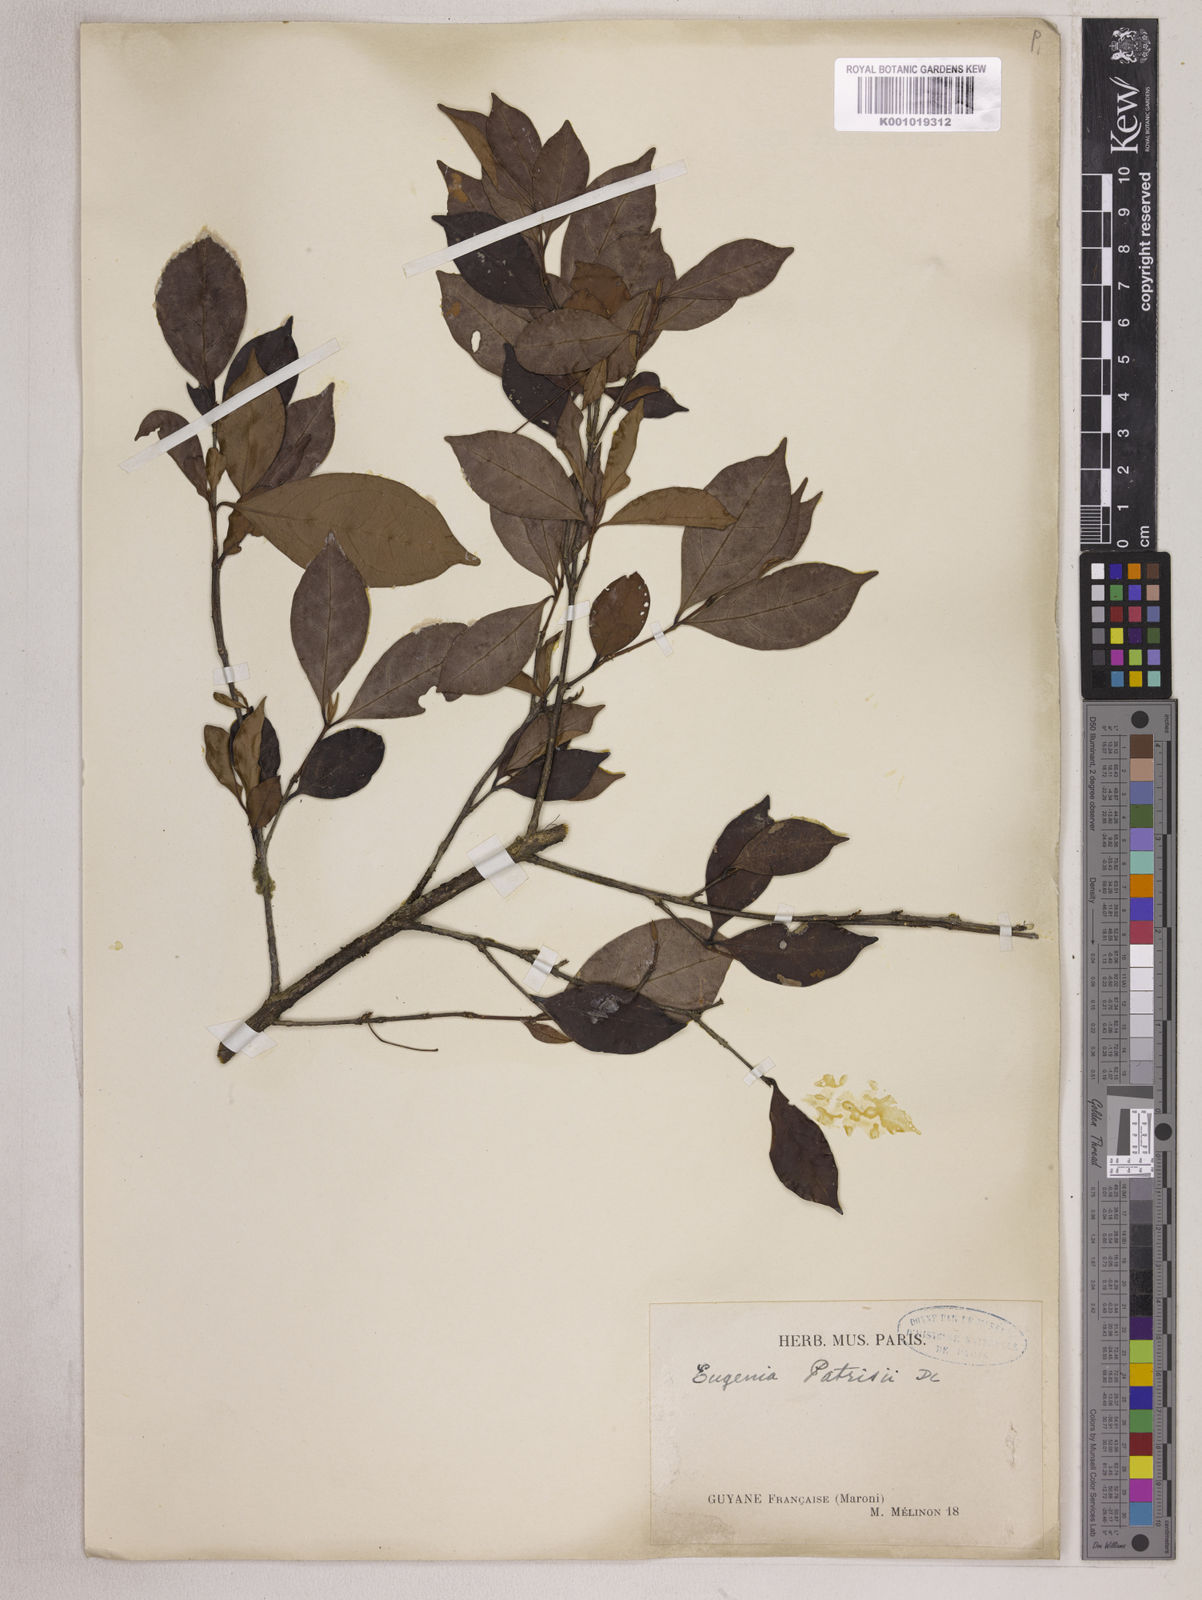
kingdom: Plantae
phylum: Tracheophyta
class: Magnoliopsida
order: Myrtales
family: Myrtaceae
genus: Eugenia
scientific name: Eugenia patrisii
